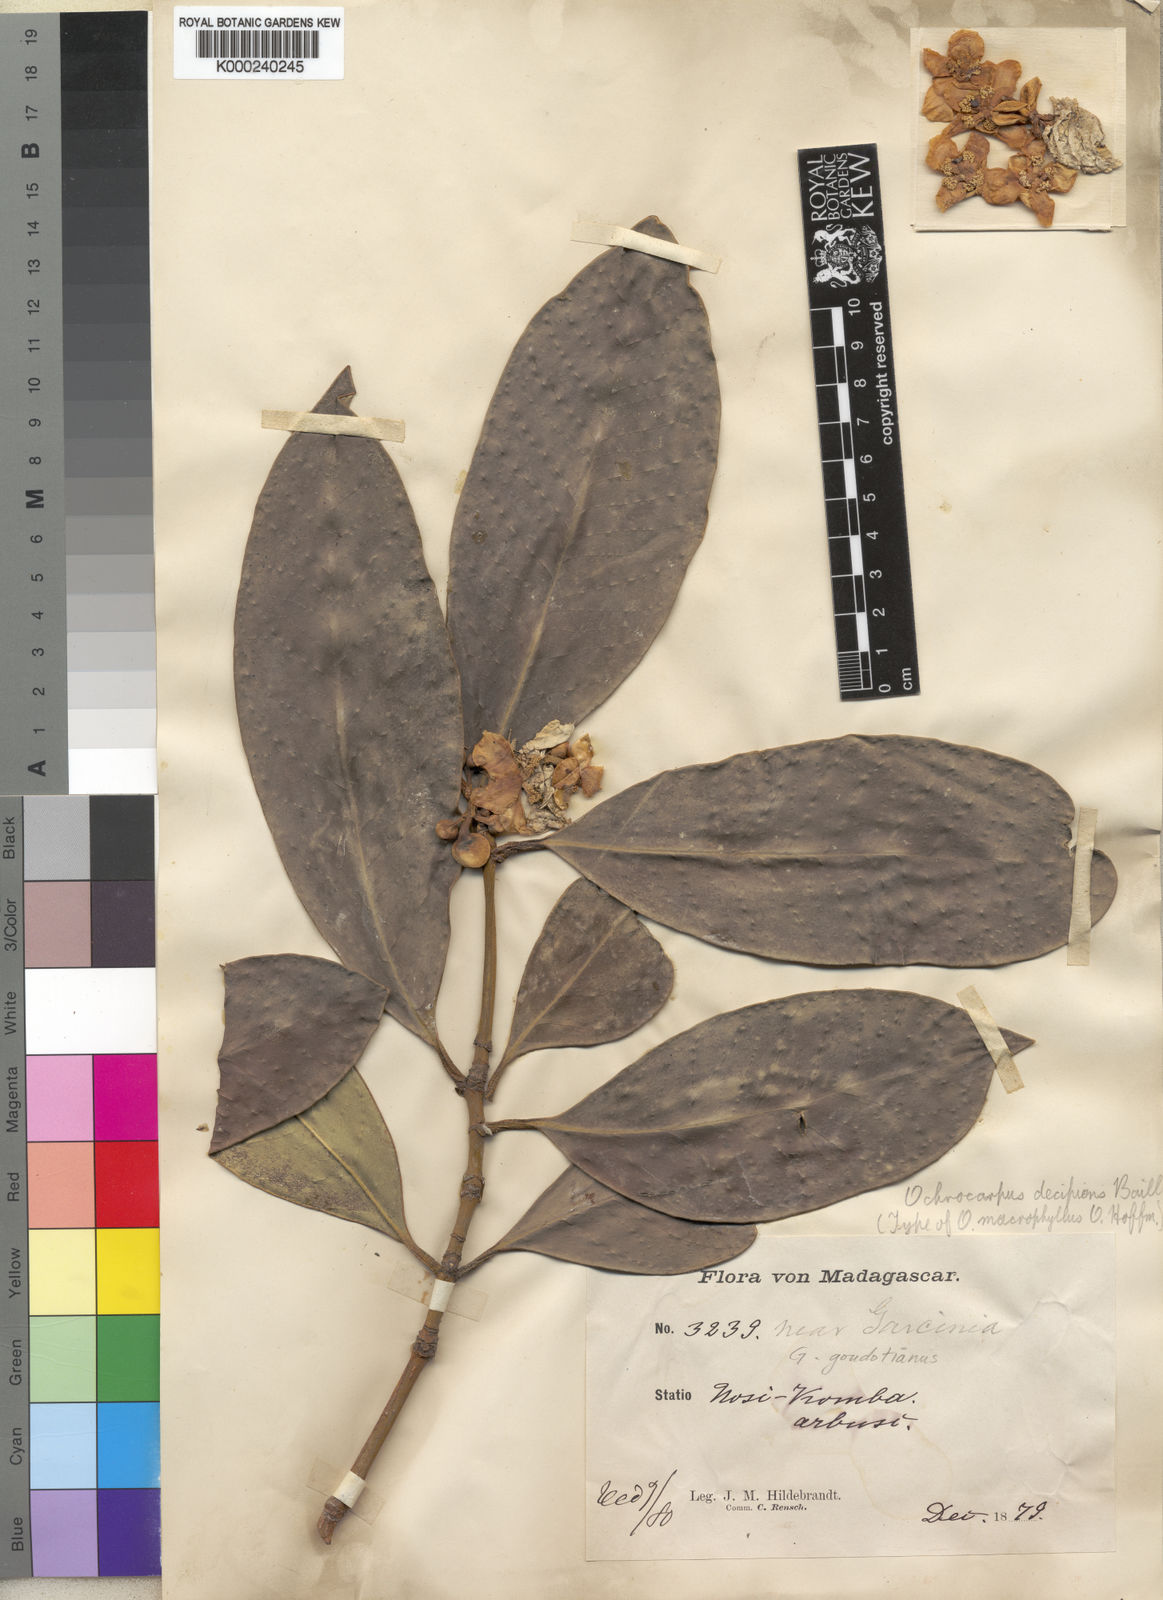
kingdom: Plantae
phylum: Tracheophyta
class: Magnoliopsida
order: Malpighiales
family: Clusiaceae
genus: Garcinia
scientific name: Garcinia
